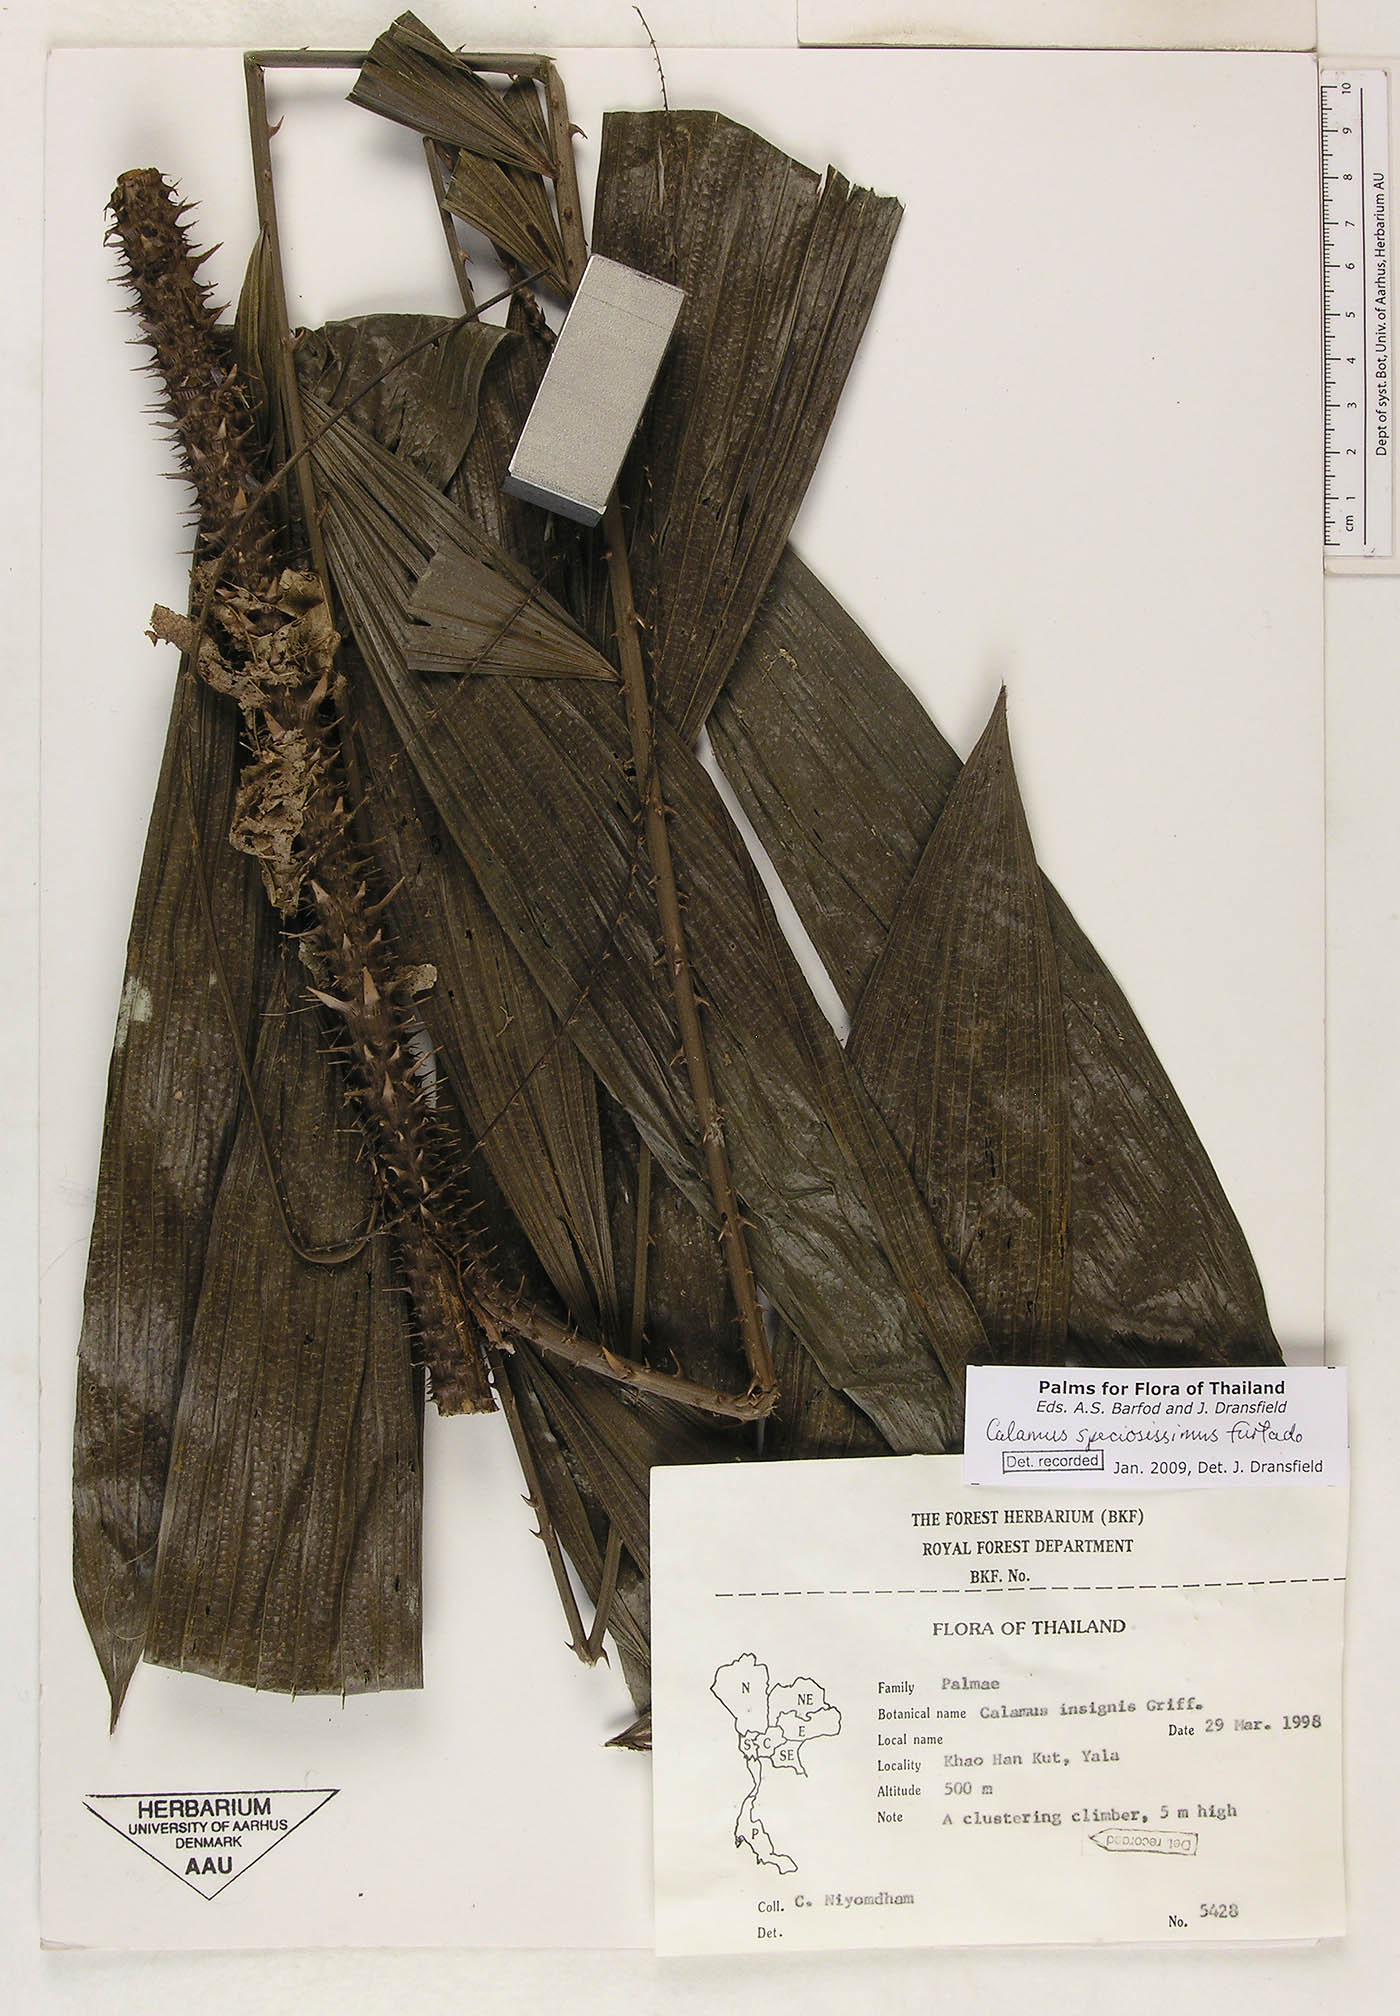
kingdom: Plantae
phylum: Tracheophyta
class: Liliopsida
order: Arecales
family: Arecaceae
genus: Calamus
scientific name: Calamus micranthus
